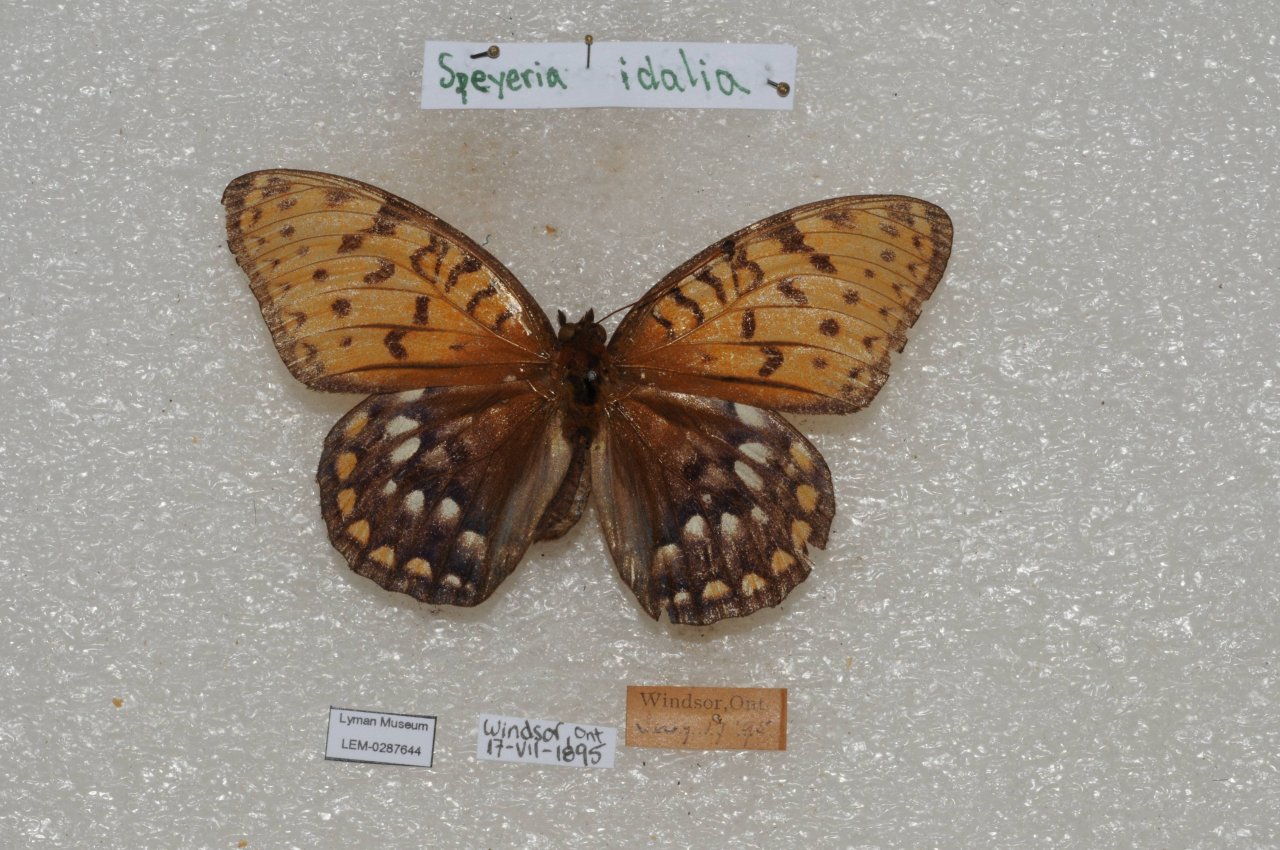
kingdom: Animalia
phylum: Arthropoda
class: Insecta
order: Lepidoptera
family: Nymphalidae
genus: Speyeria
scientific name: Speyeria idalia
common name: Regal Fritillary
